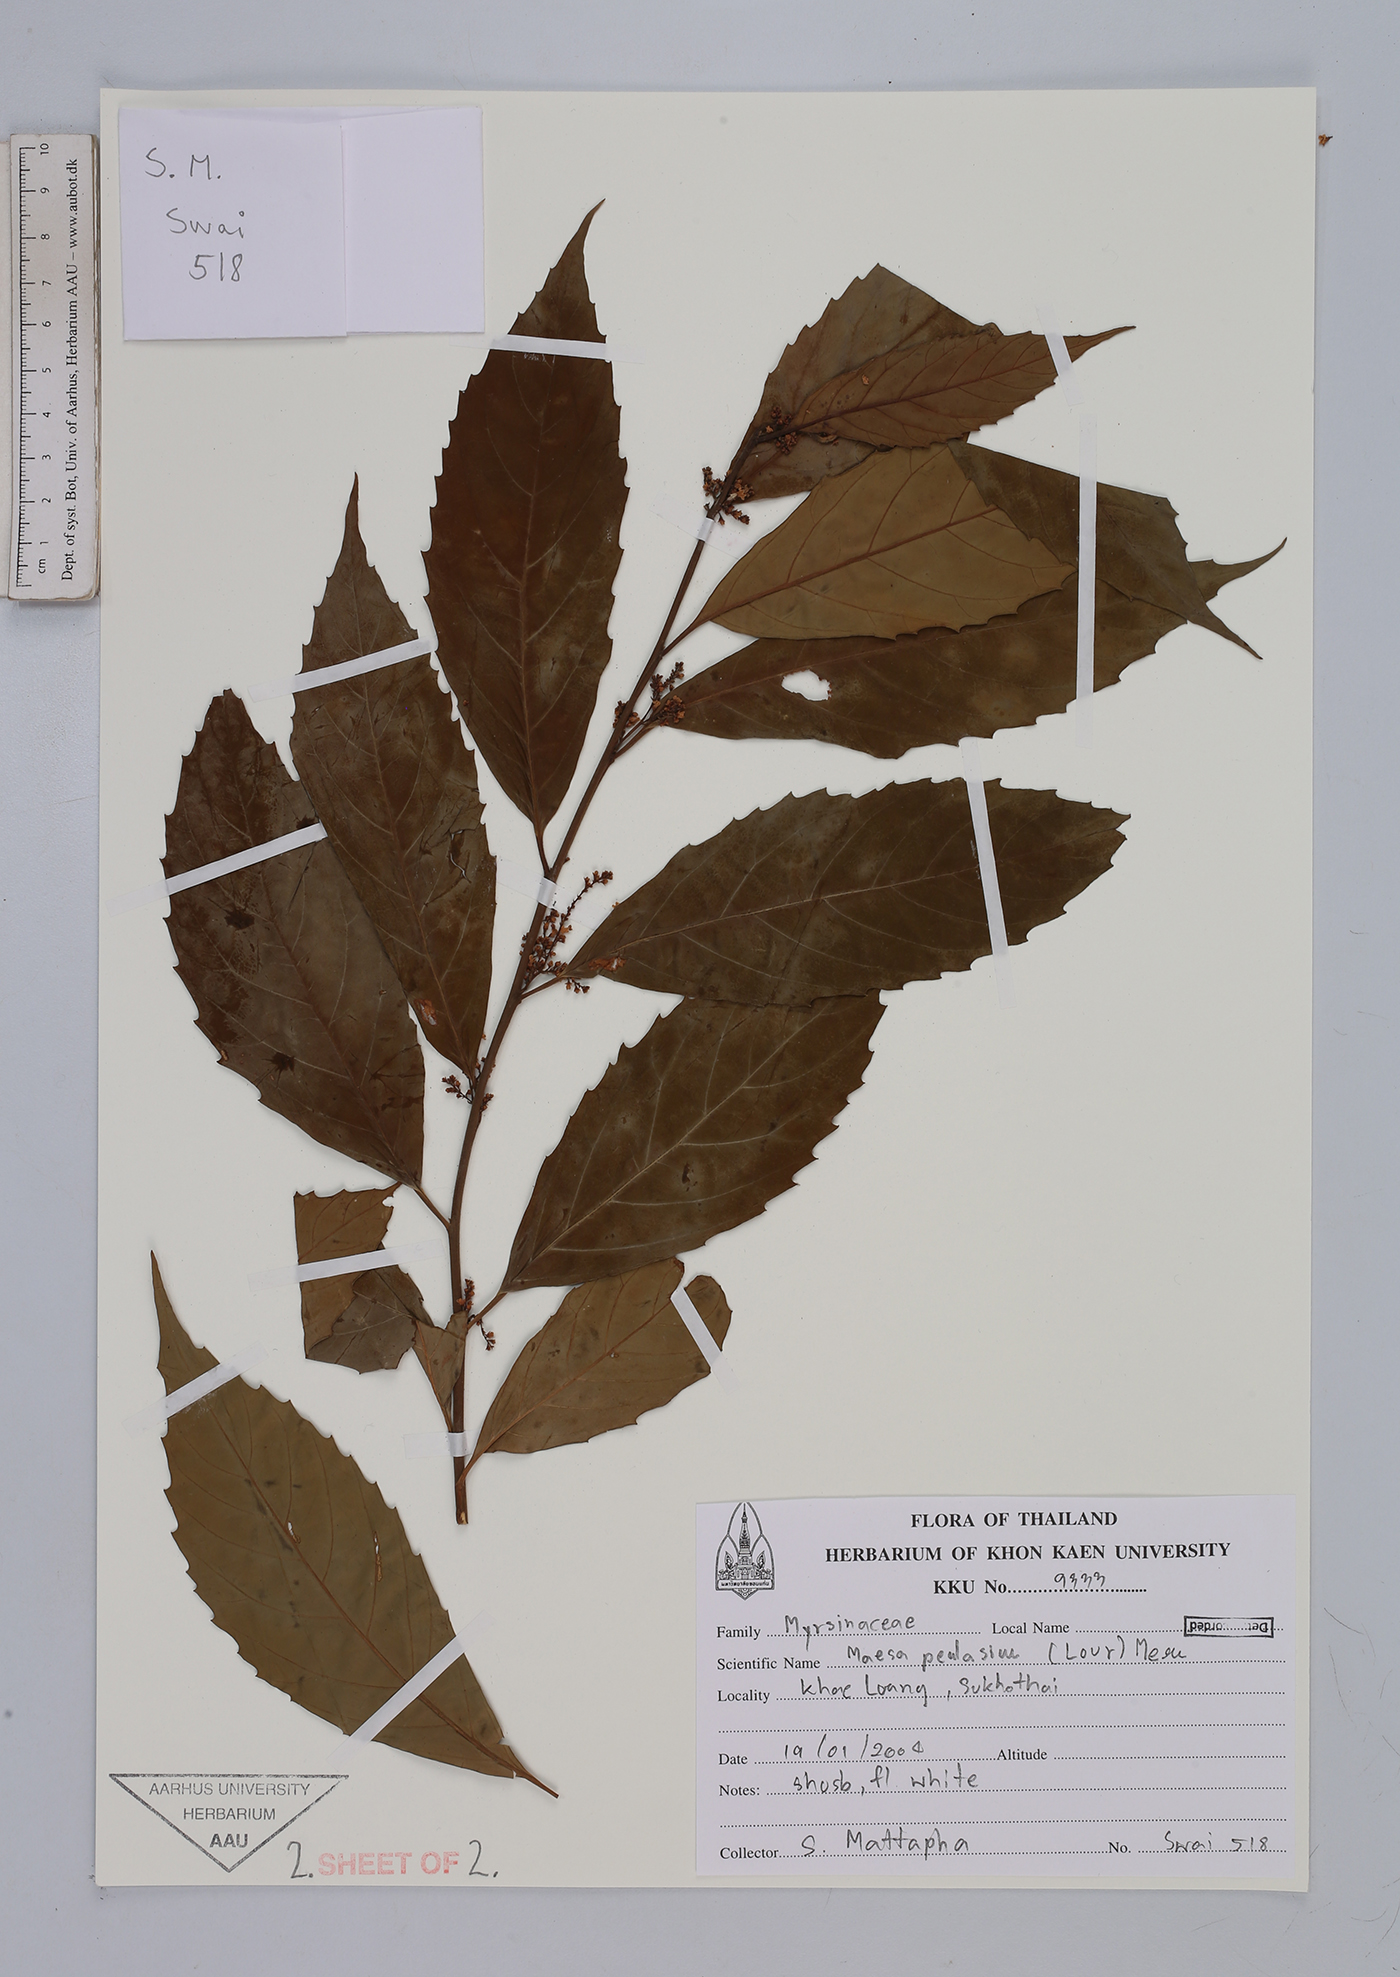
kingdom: Plantae
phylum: Tracheophyta
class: Magnoliopsida
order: Ericales
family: Primulaceae
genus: Maesa
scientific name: Maesa perlaria
